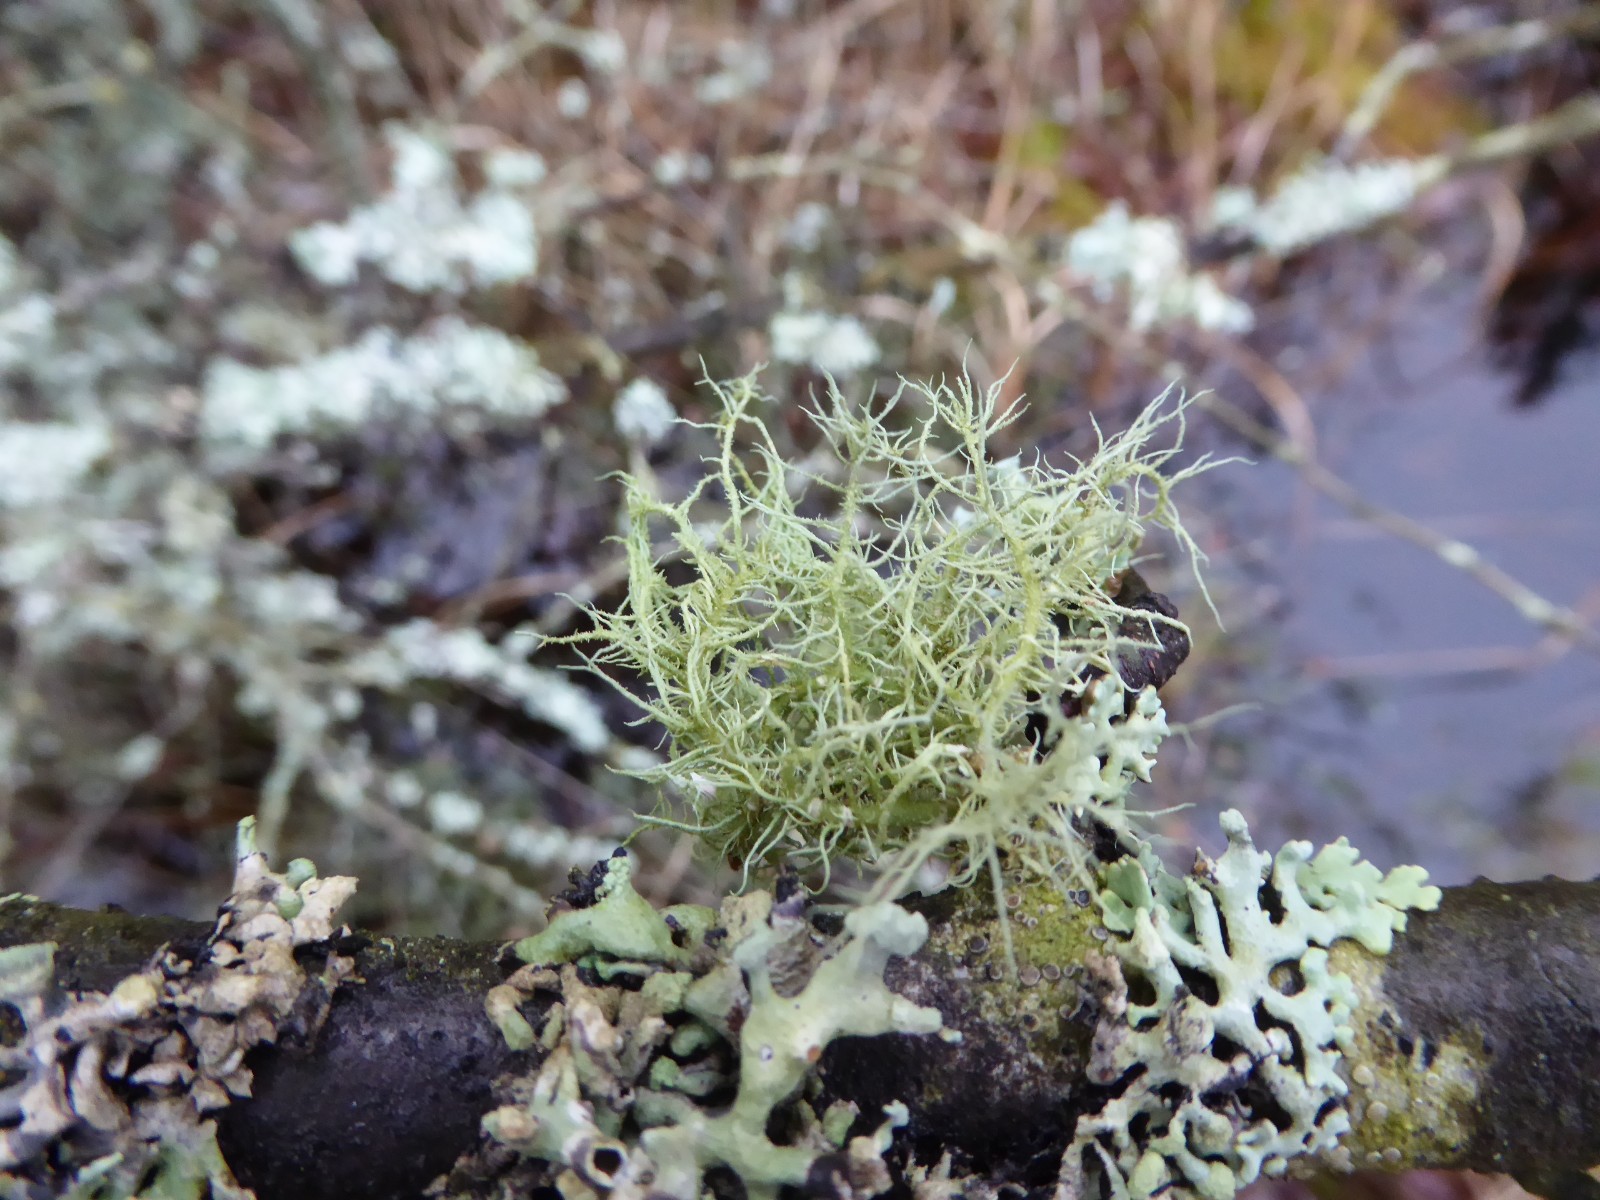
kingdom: Fungi
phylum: Ascomycota
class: Lecanoromycetes
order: Lecanorales
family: Parmeliaceae
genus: Usnea
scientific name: Usnea hirta
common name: liden skæglav
